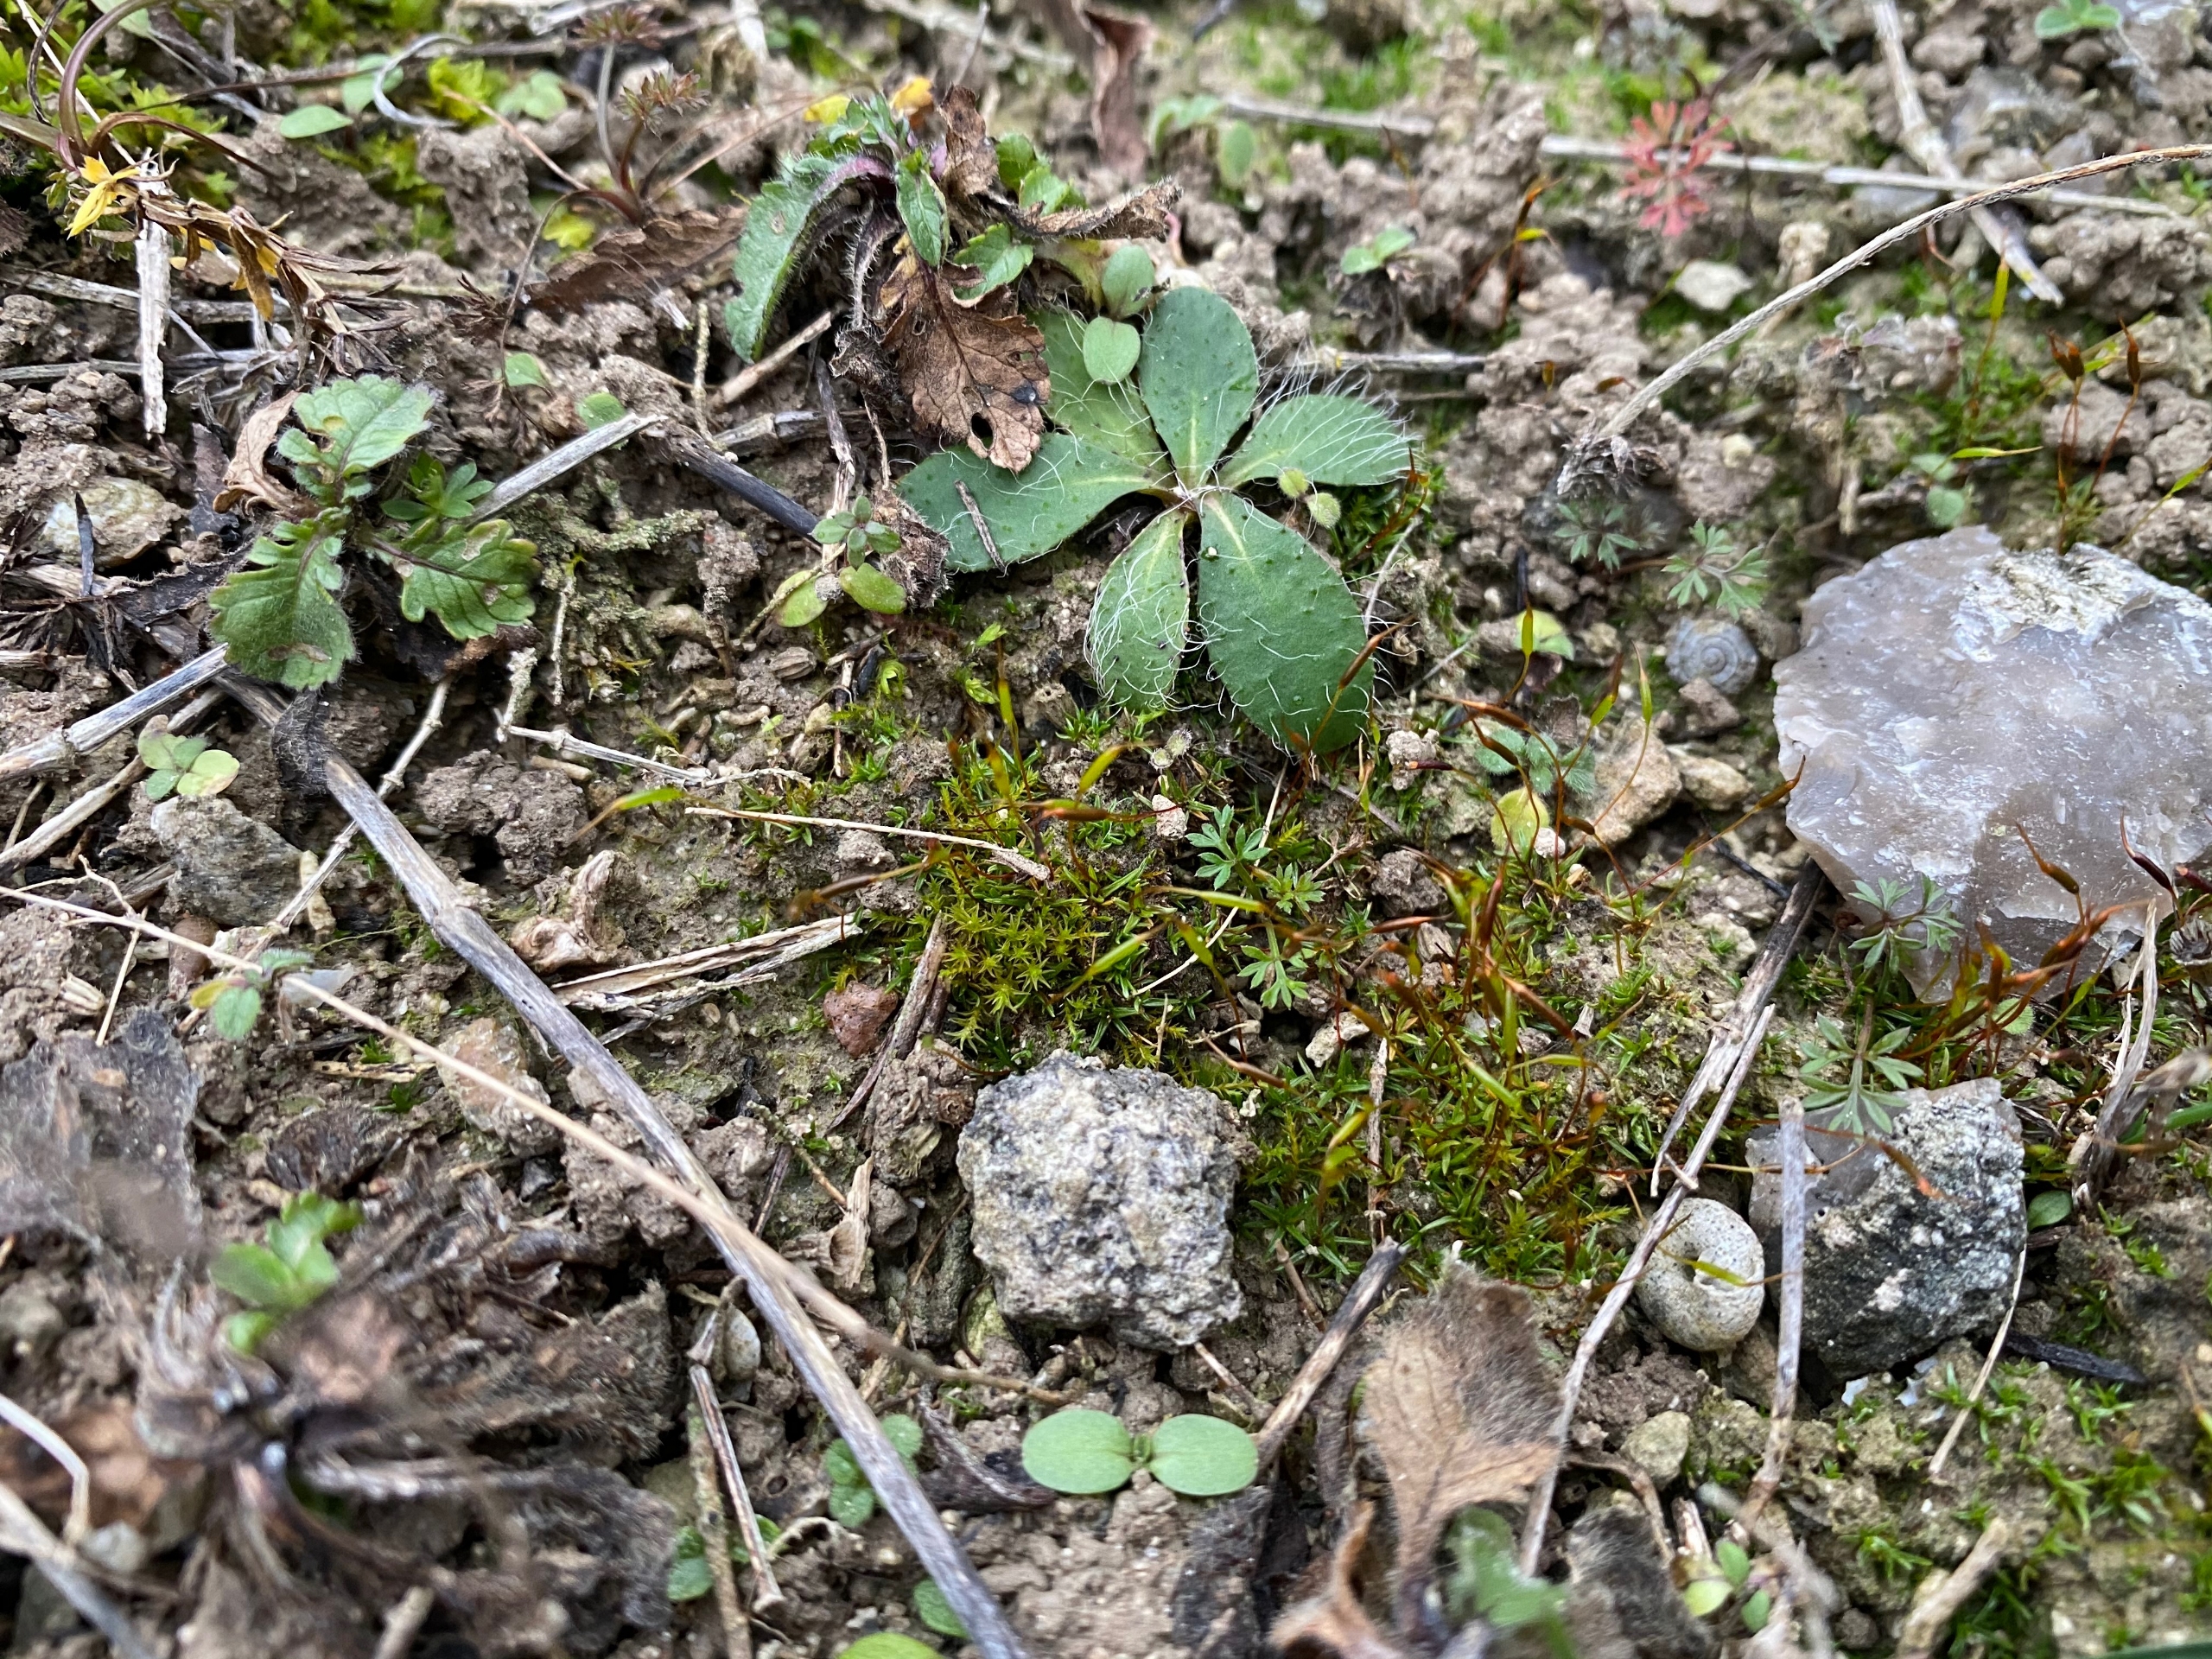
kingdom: Plantae
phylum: Bryophyta
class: Bryopsida
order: Pottiales
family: Pottiaceae
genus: Aloina
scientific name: Aloina aloides
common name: Spidsbladet tøffelmos
